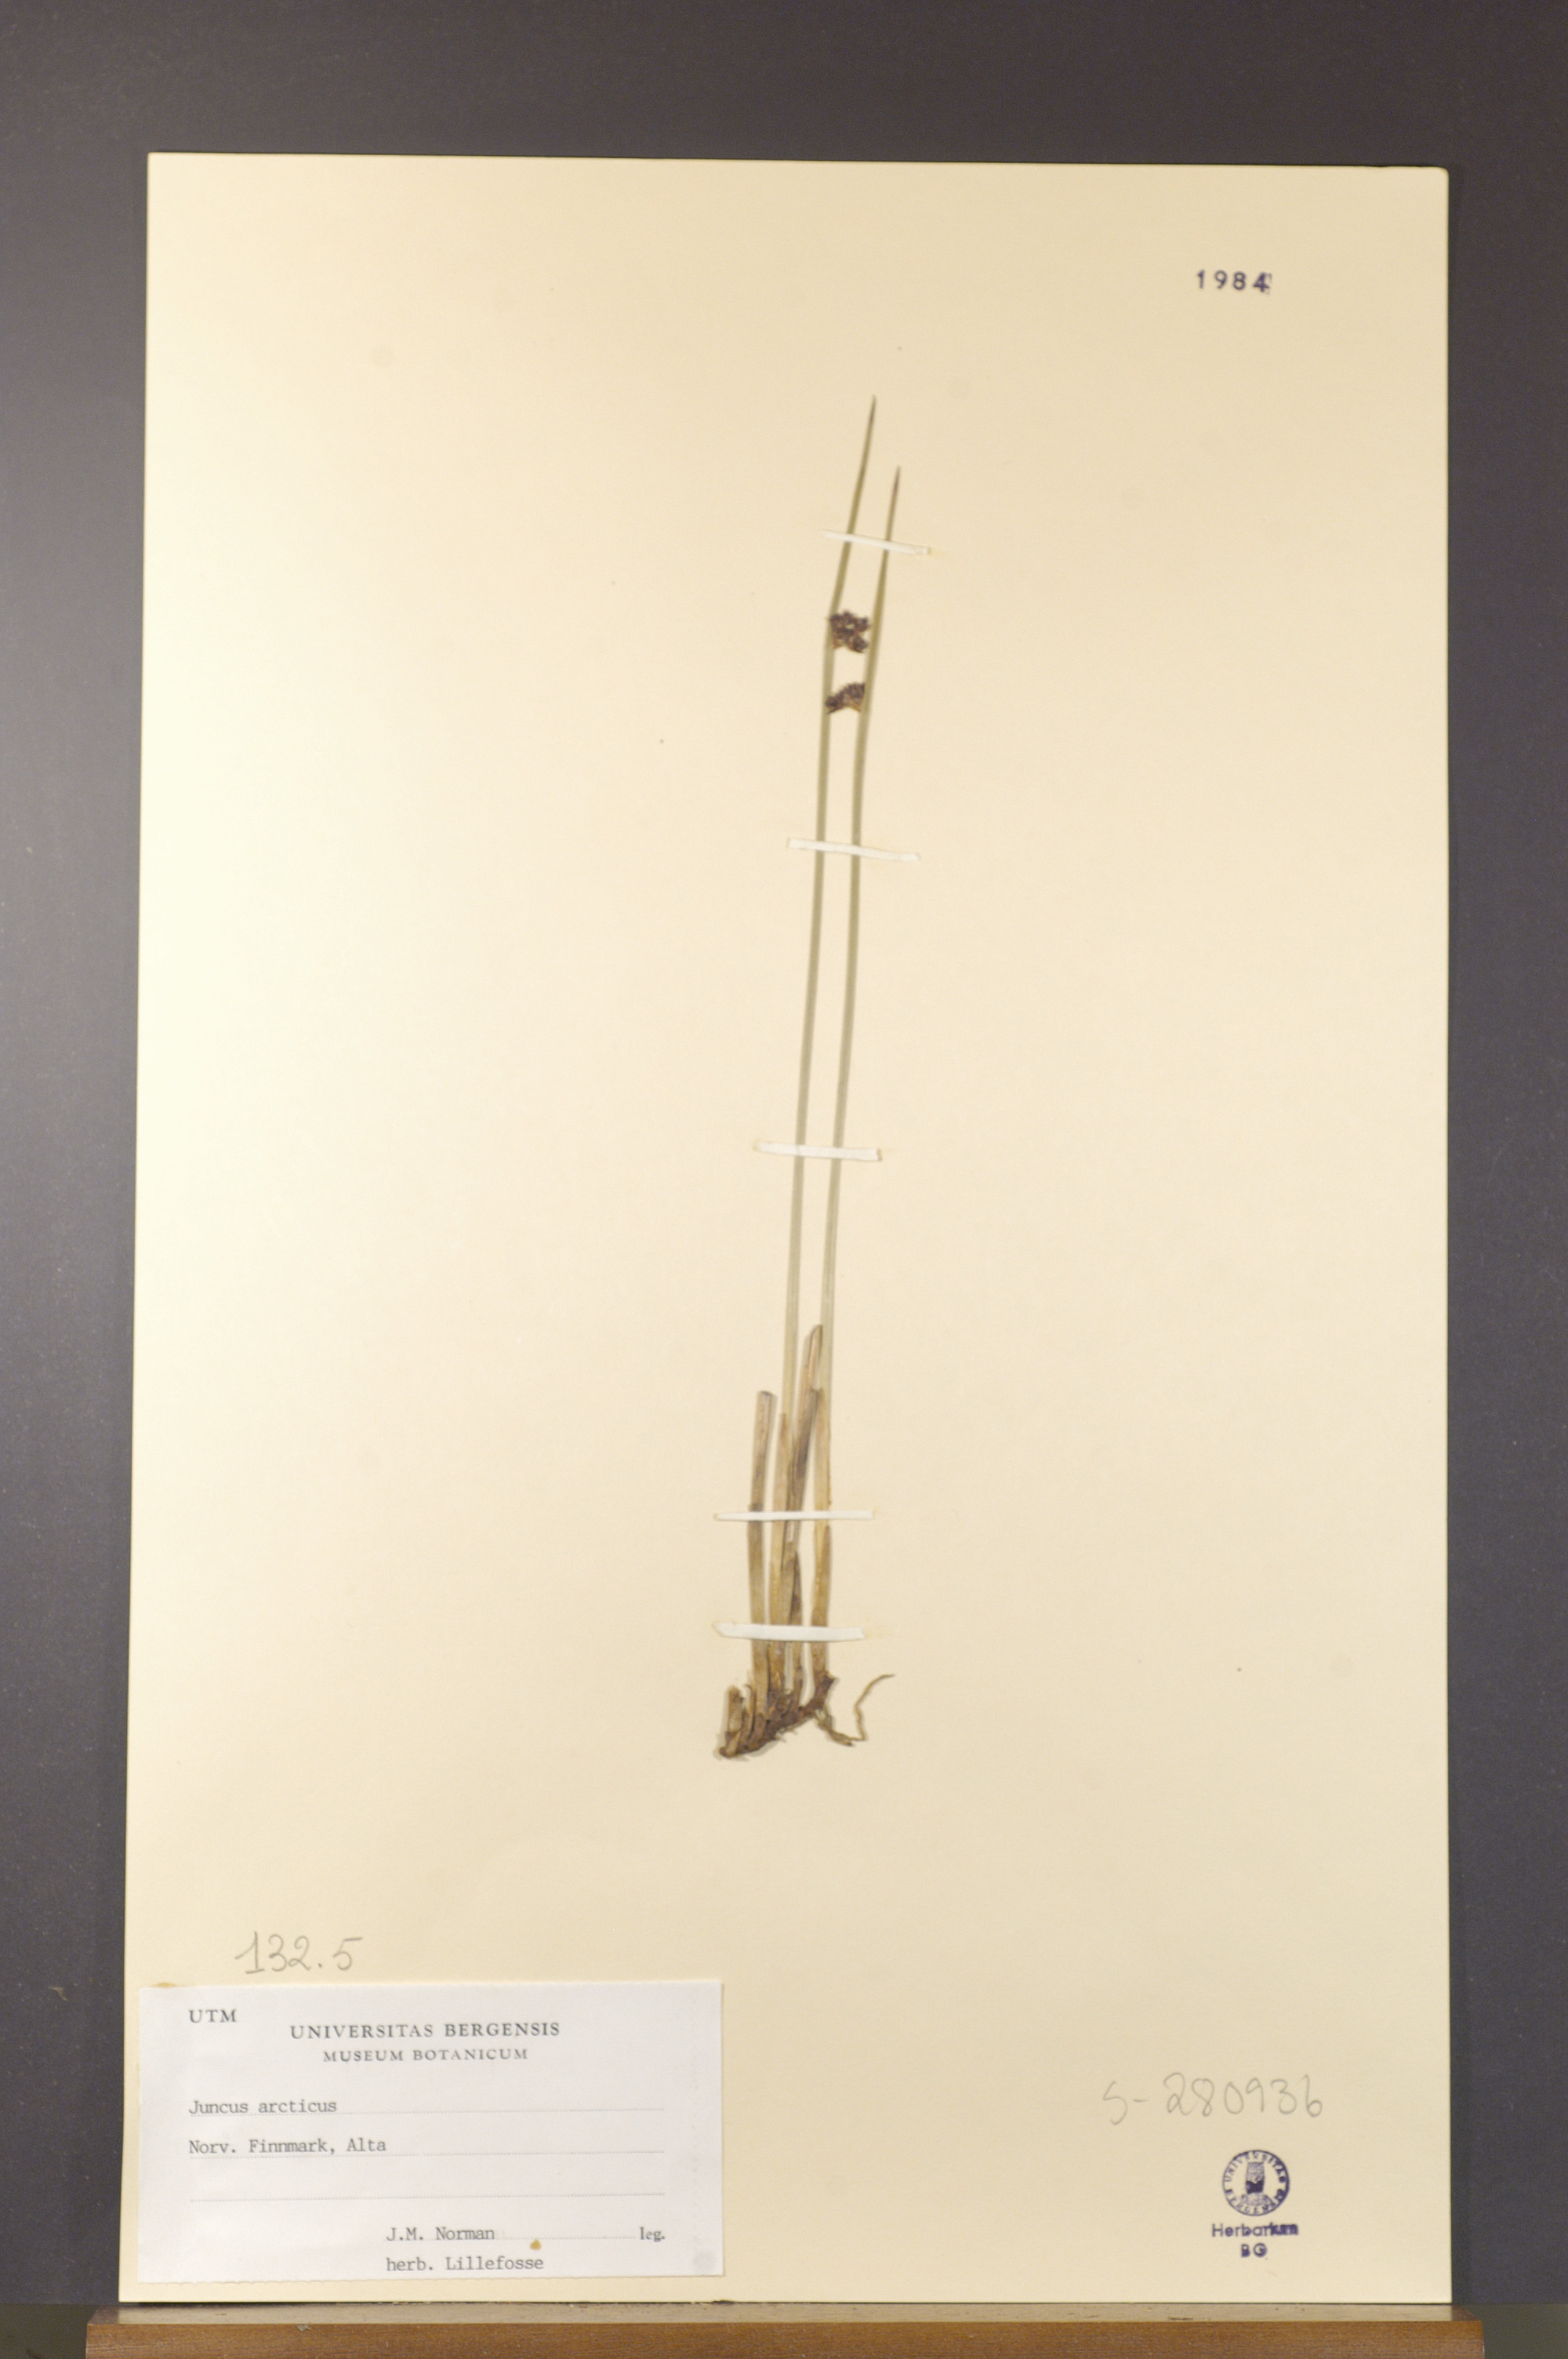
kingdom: Plantae
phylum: Tracheophyta
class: Liliopsida
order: Poales
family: Juncaceae
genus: Juncus
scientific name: Juncus arcticus
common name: Arctic rush
